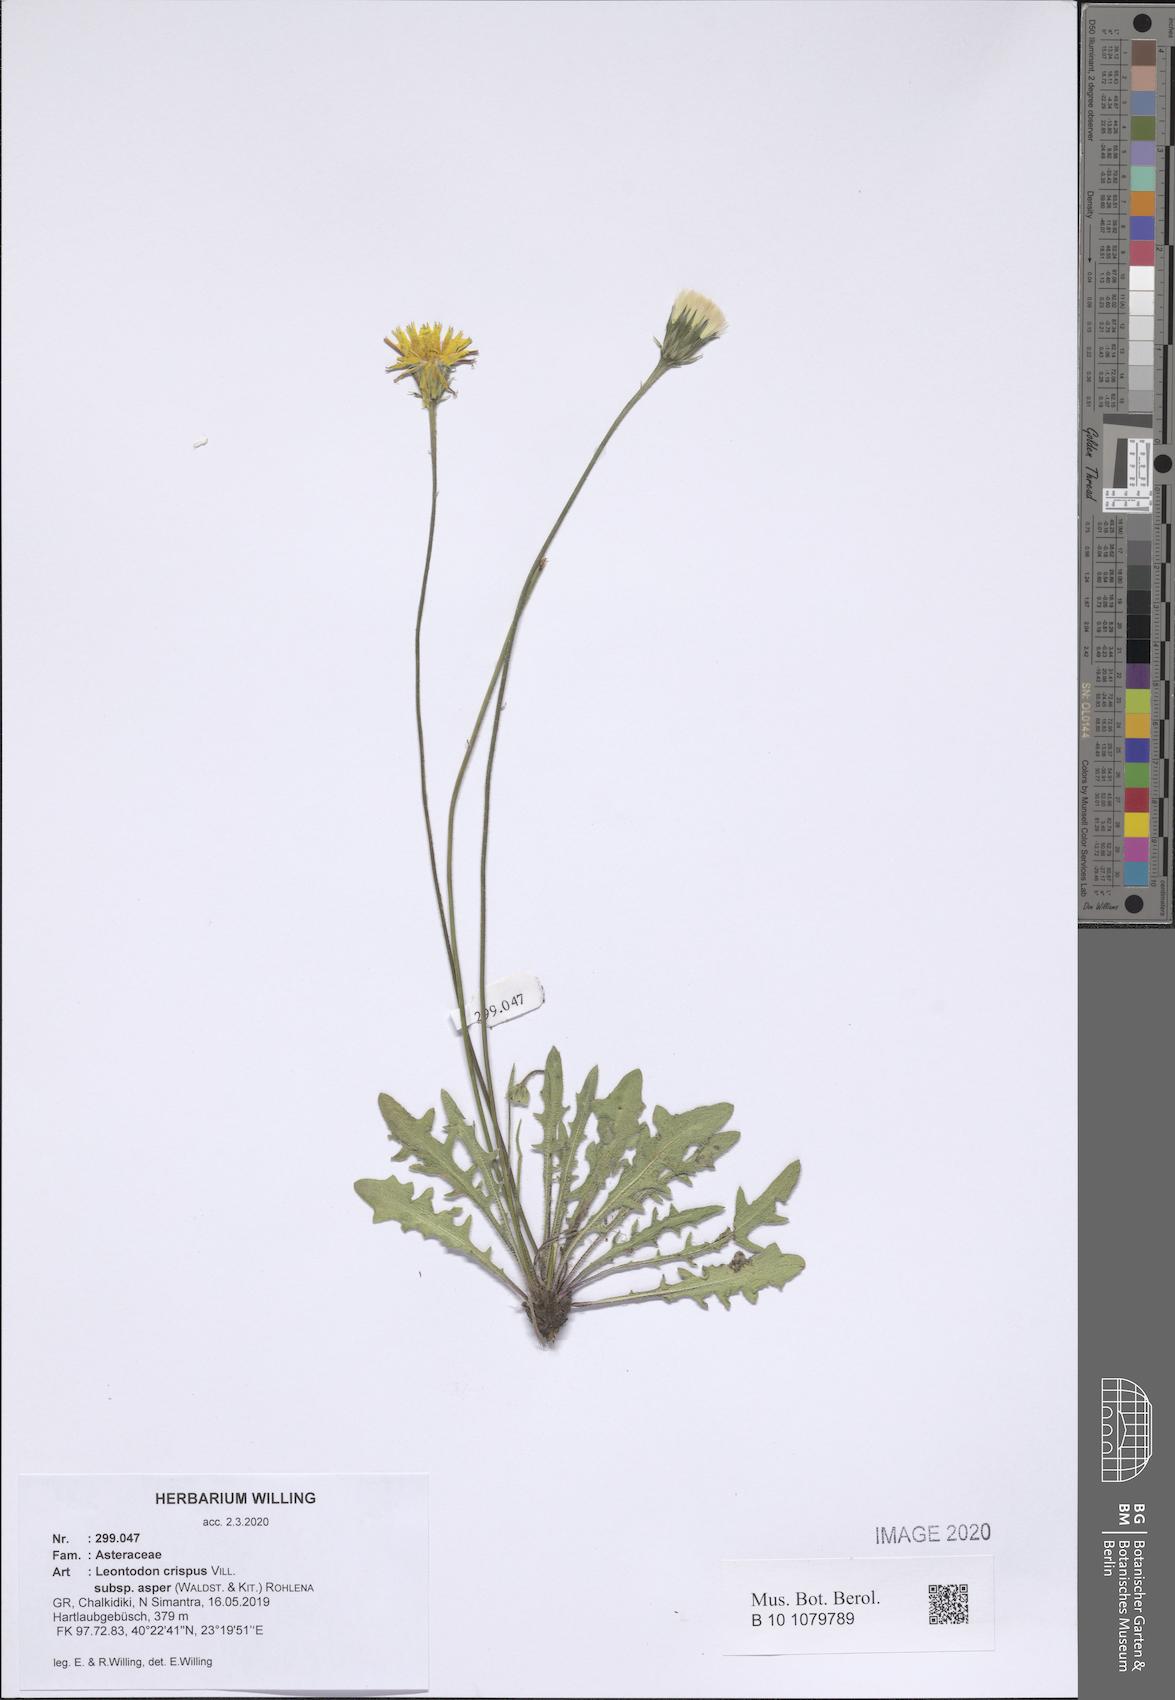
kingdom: Plantae
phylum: Tracheophyta
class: Magnoliopsida
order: Asterales
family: Asteraceae
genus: Leontodon
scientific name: Leontodon biscutellifolius
